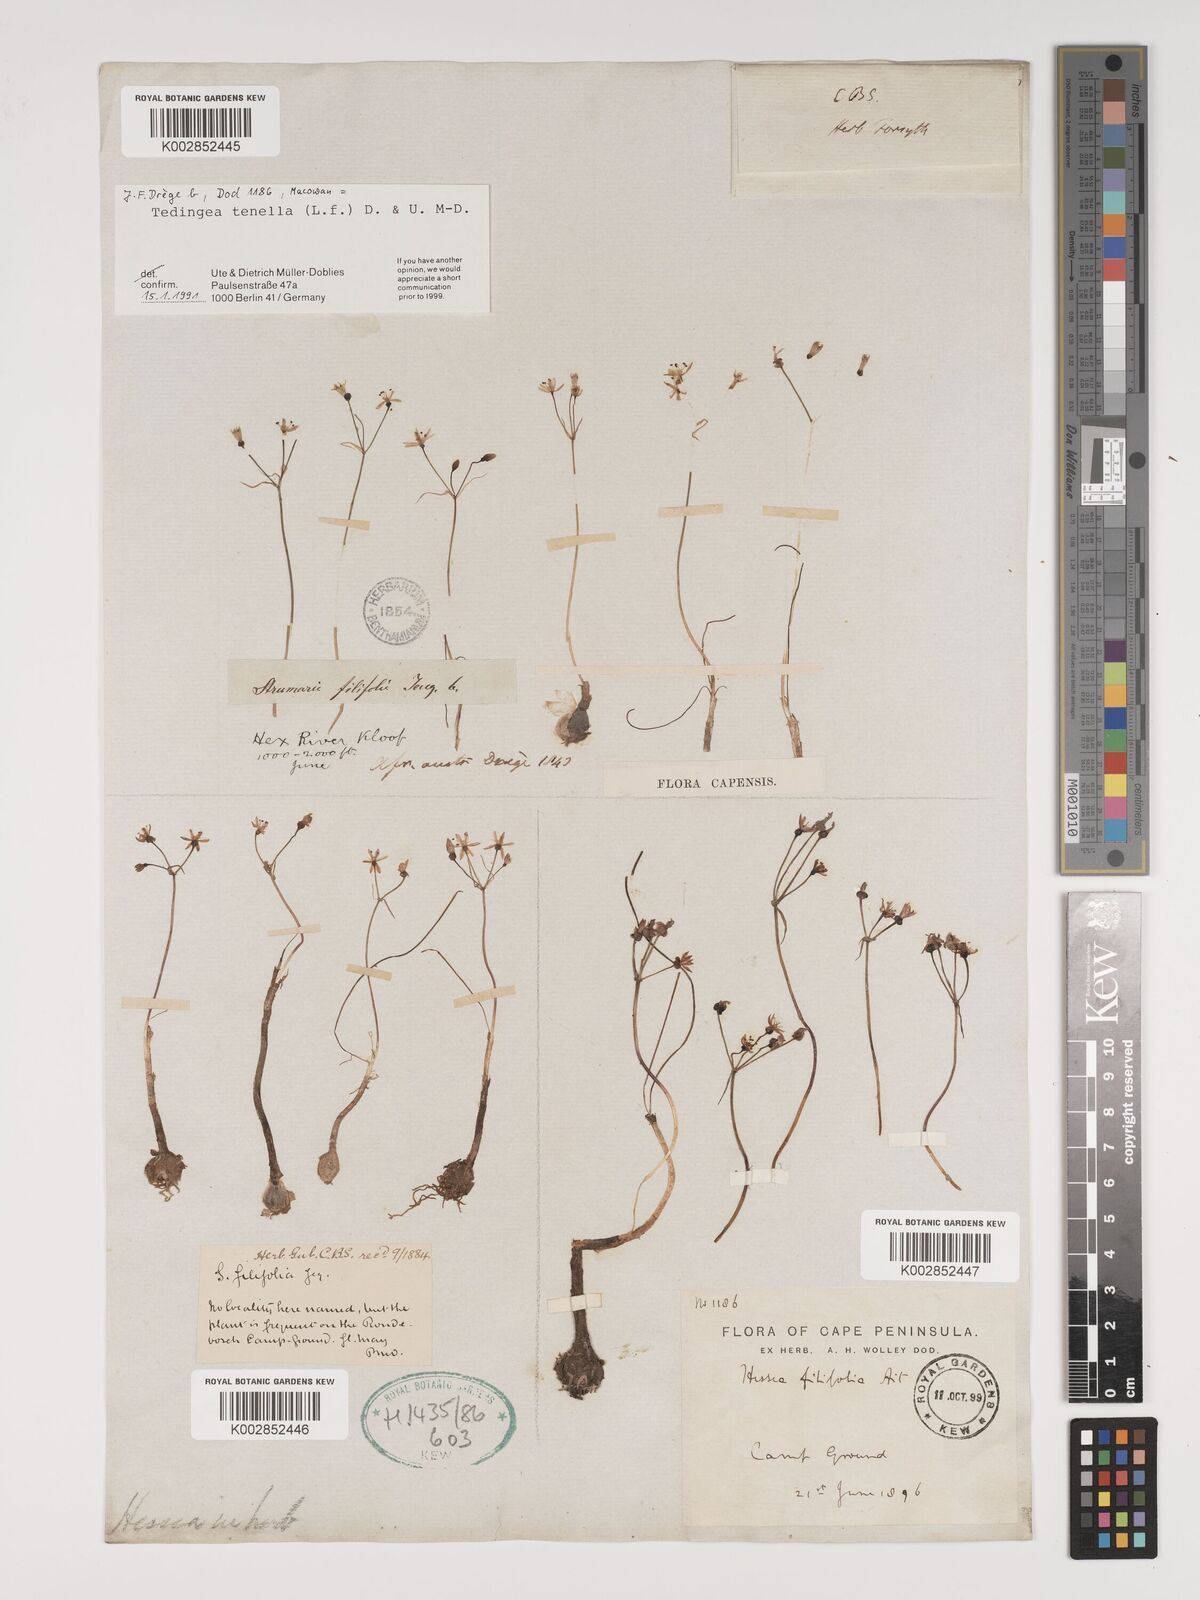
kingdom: Plantae
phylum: Tracheophyta
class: Liliopsida
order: Asparagales
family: Amaryllidaceae
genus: Strumaria
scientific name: Strumaria tenella
